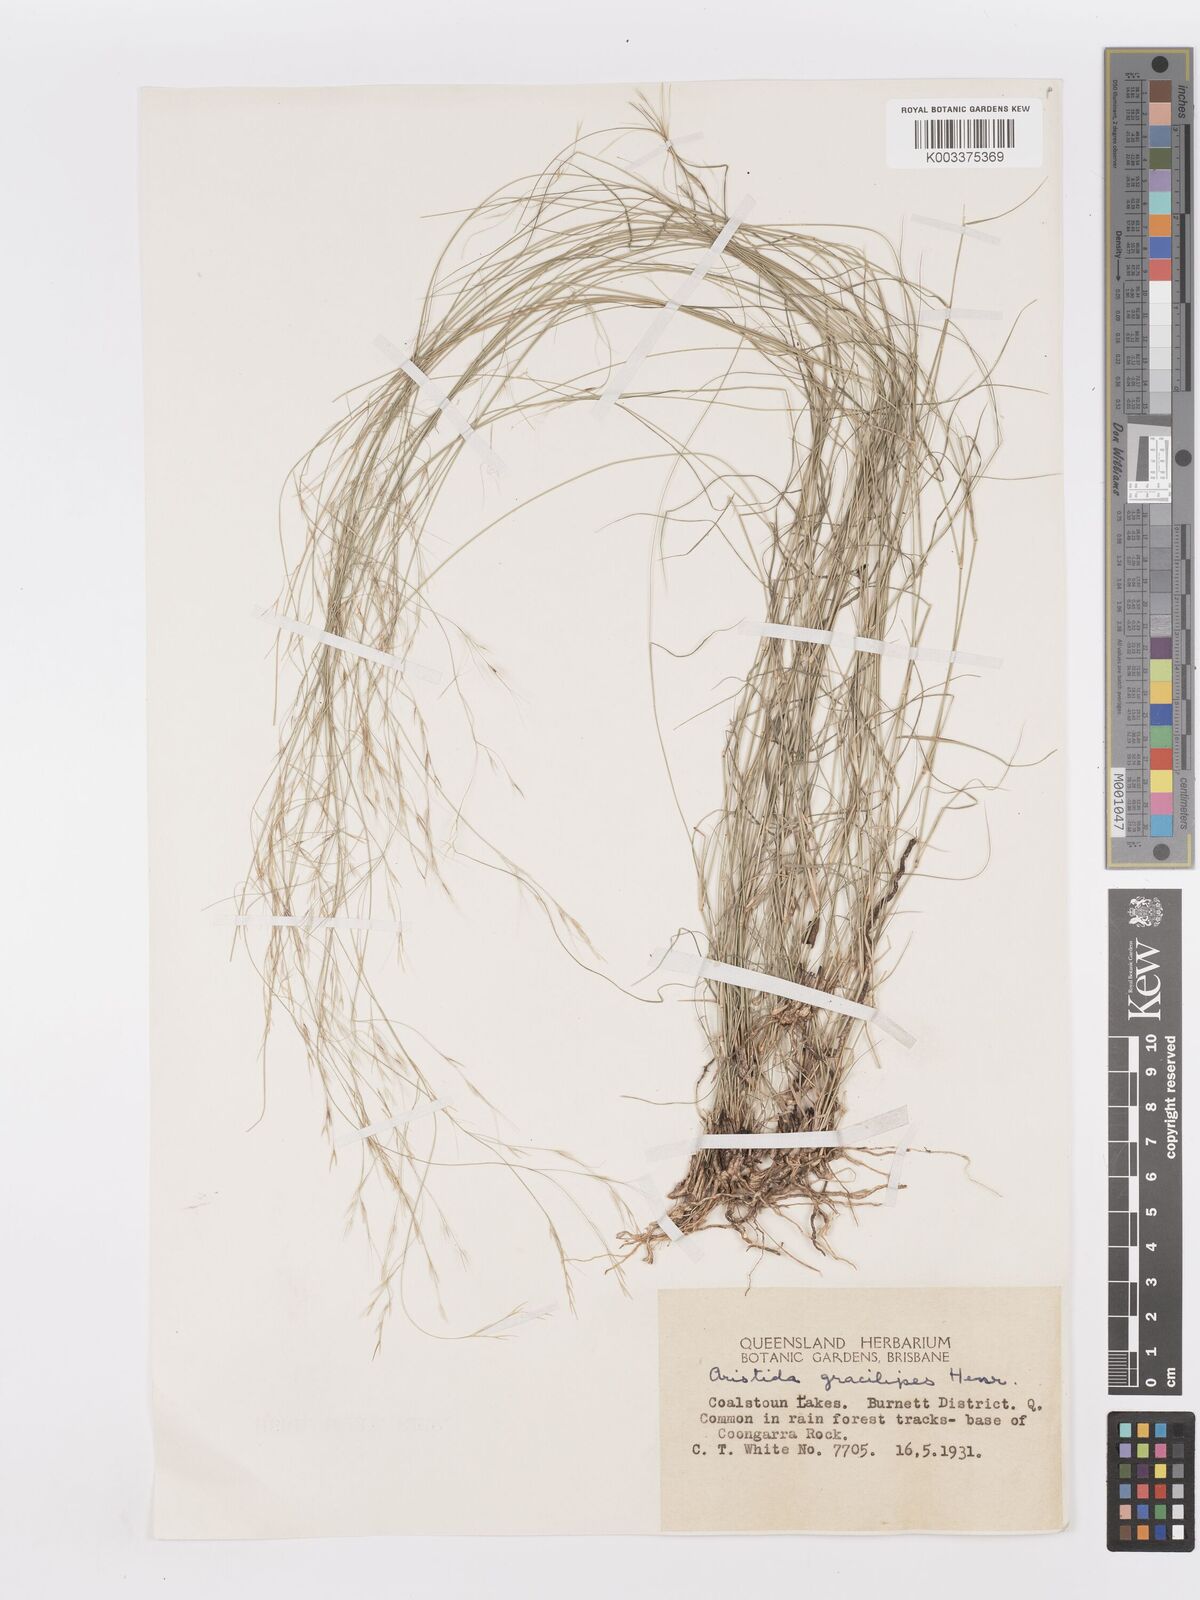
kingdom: Plantae
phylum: Tracheophyta
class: Liliopsida
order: Poales
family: Poaceae
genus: Aristida
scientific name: Aristida gracilipes
